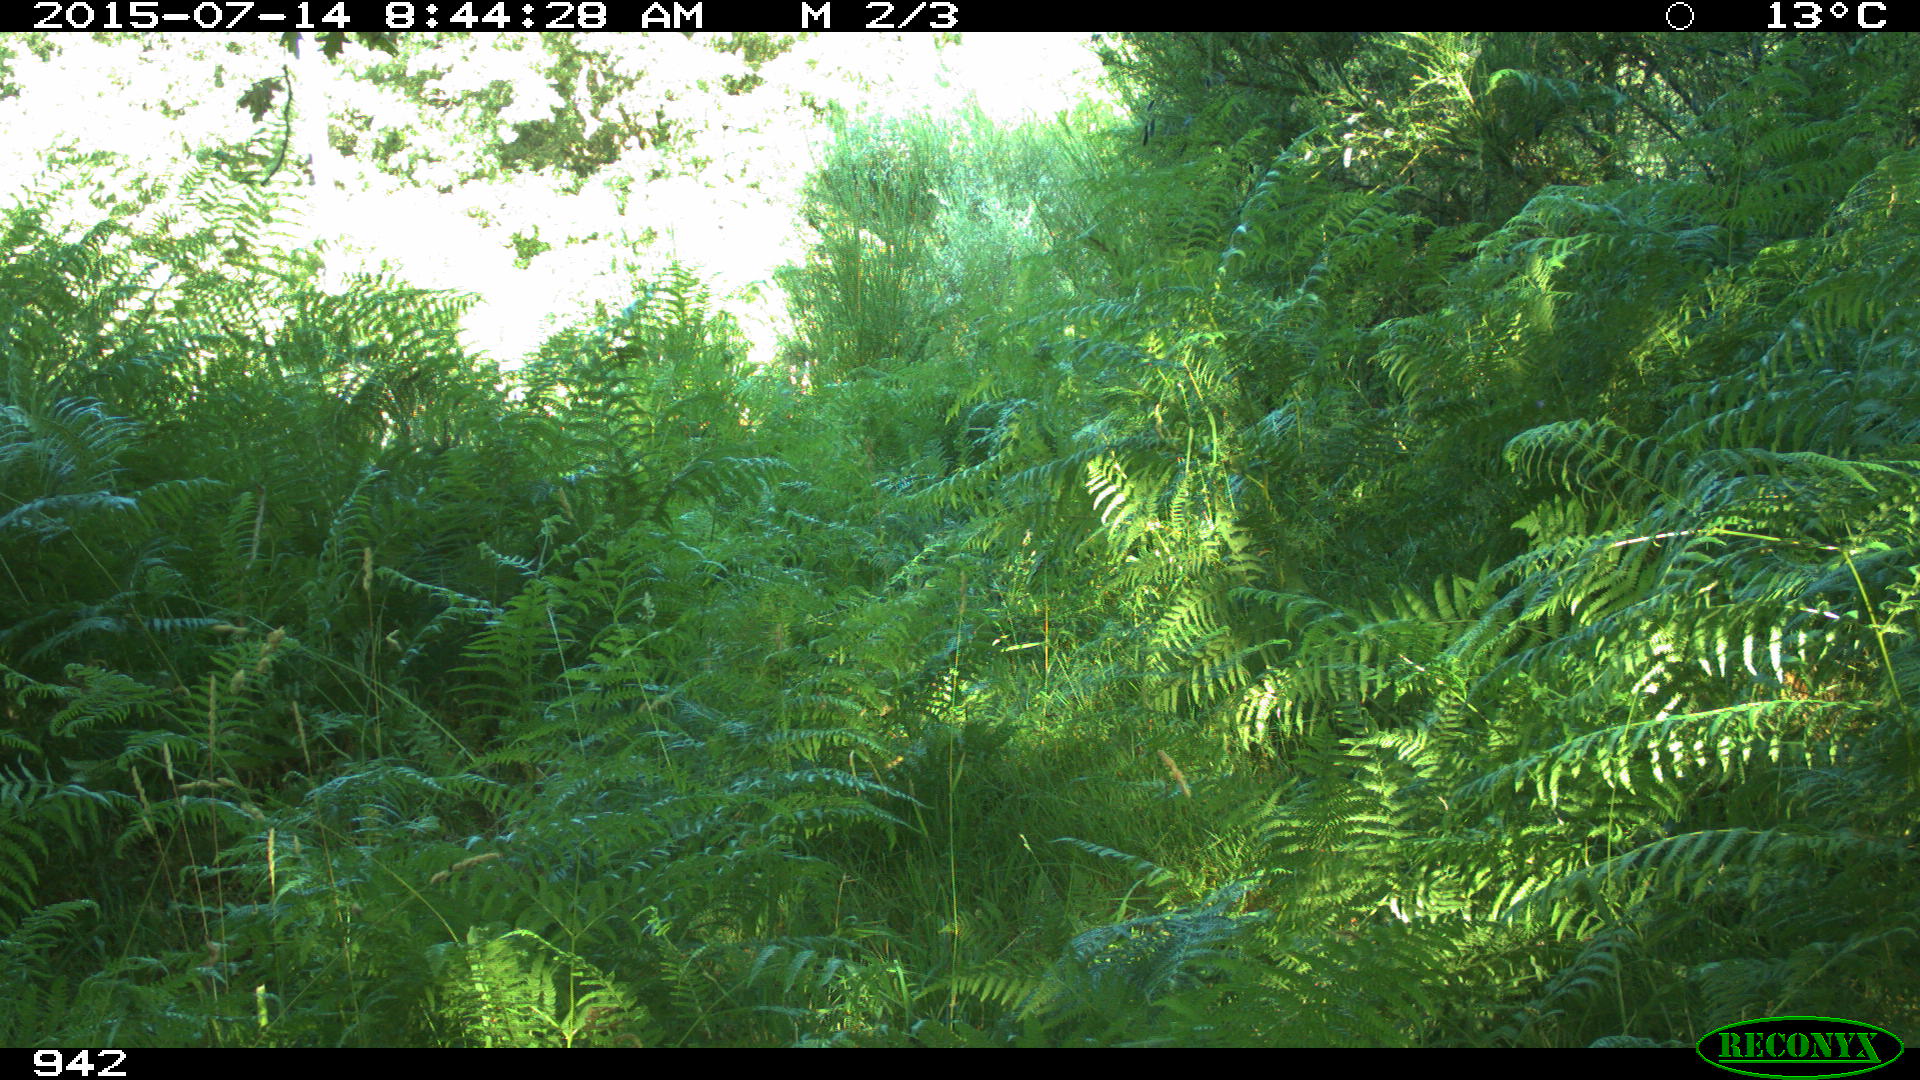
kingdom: Animalia
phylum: Chordata
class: Mammalia
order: Artiodactyla
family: Bovidae
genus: Bos
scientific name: Bos taurus
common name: Domesticated cattle
